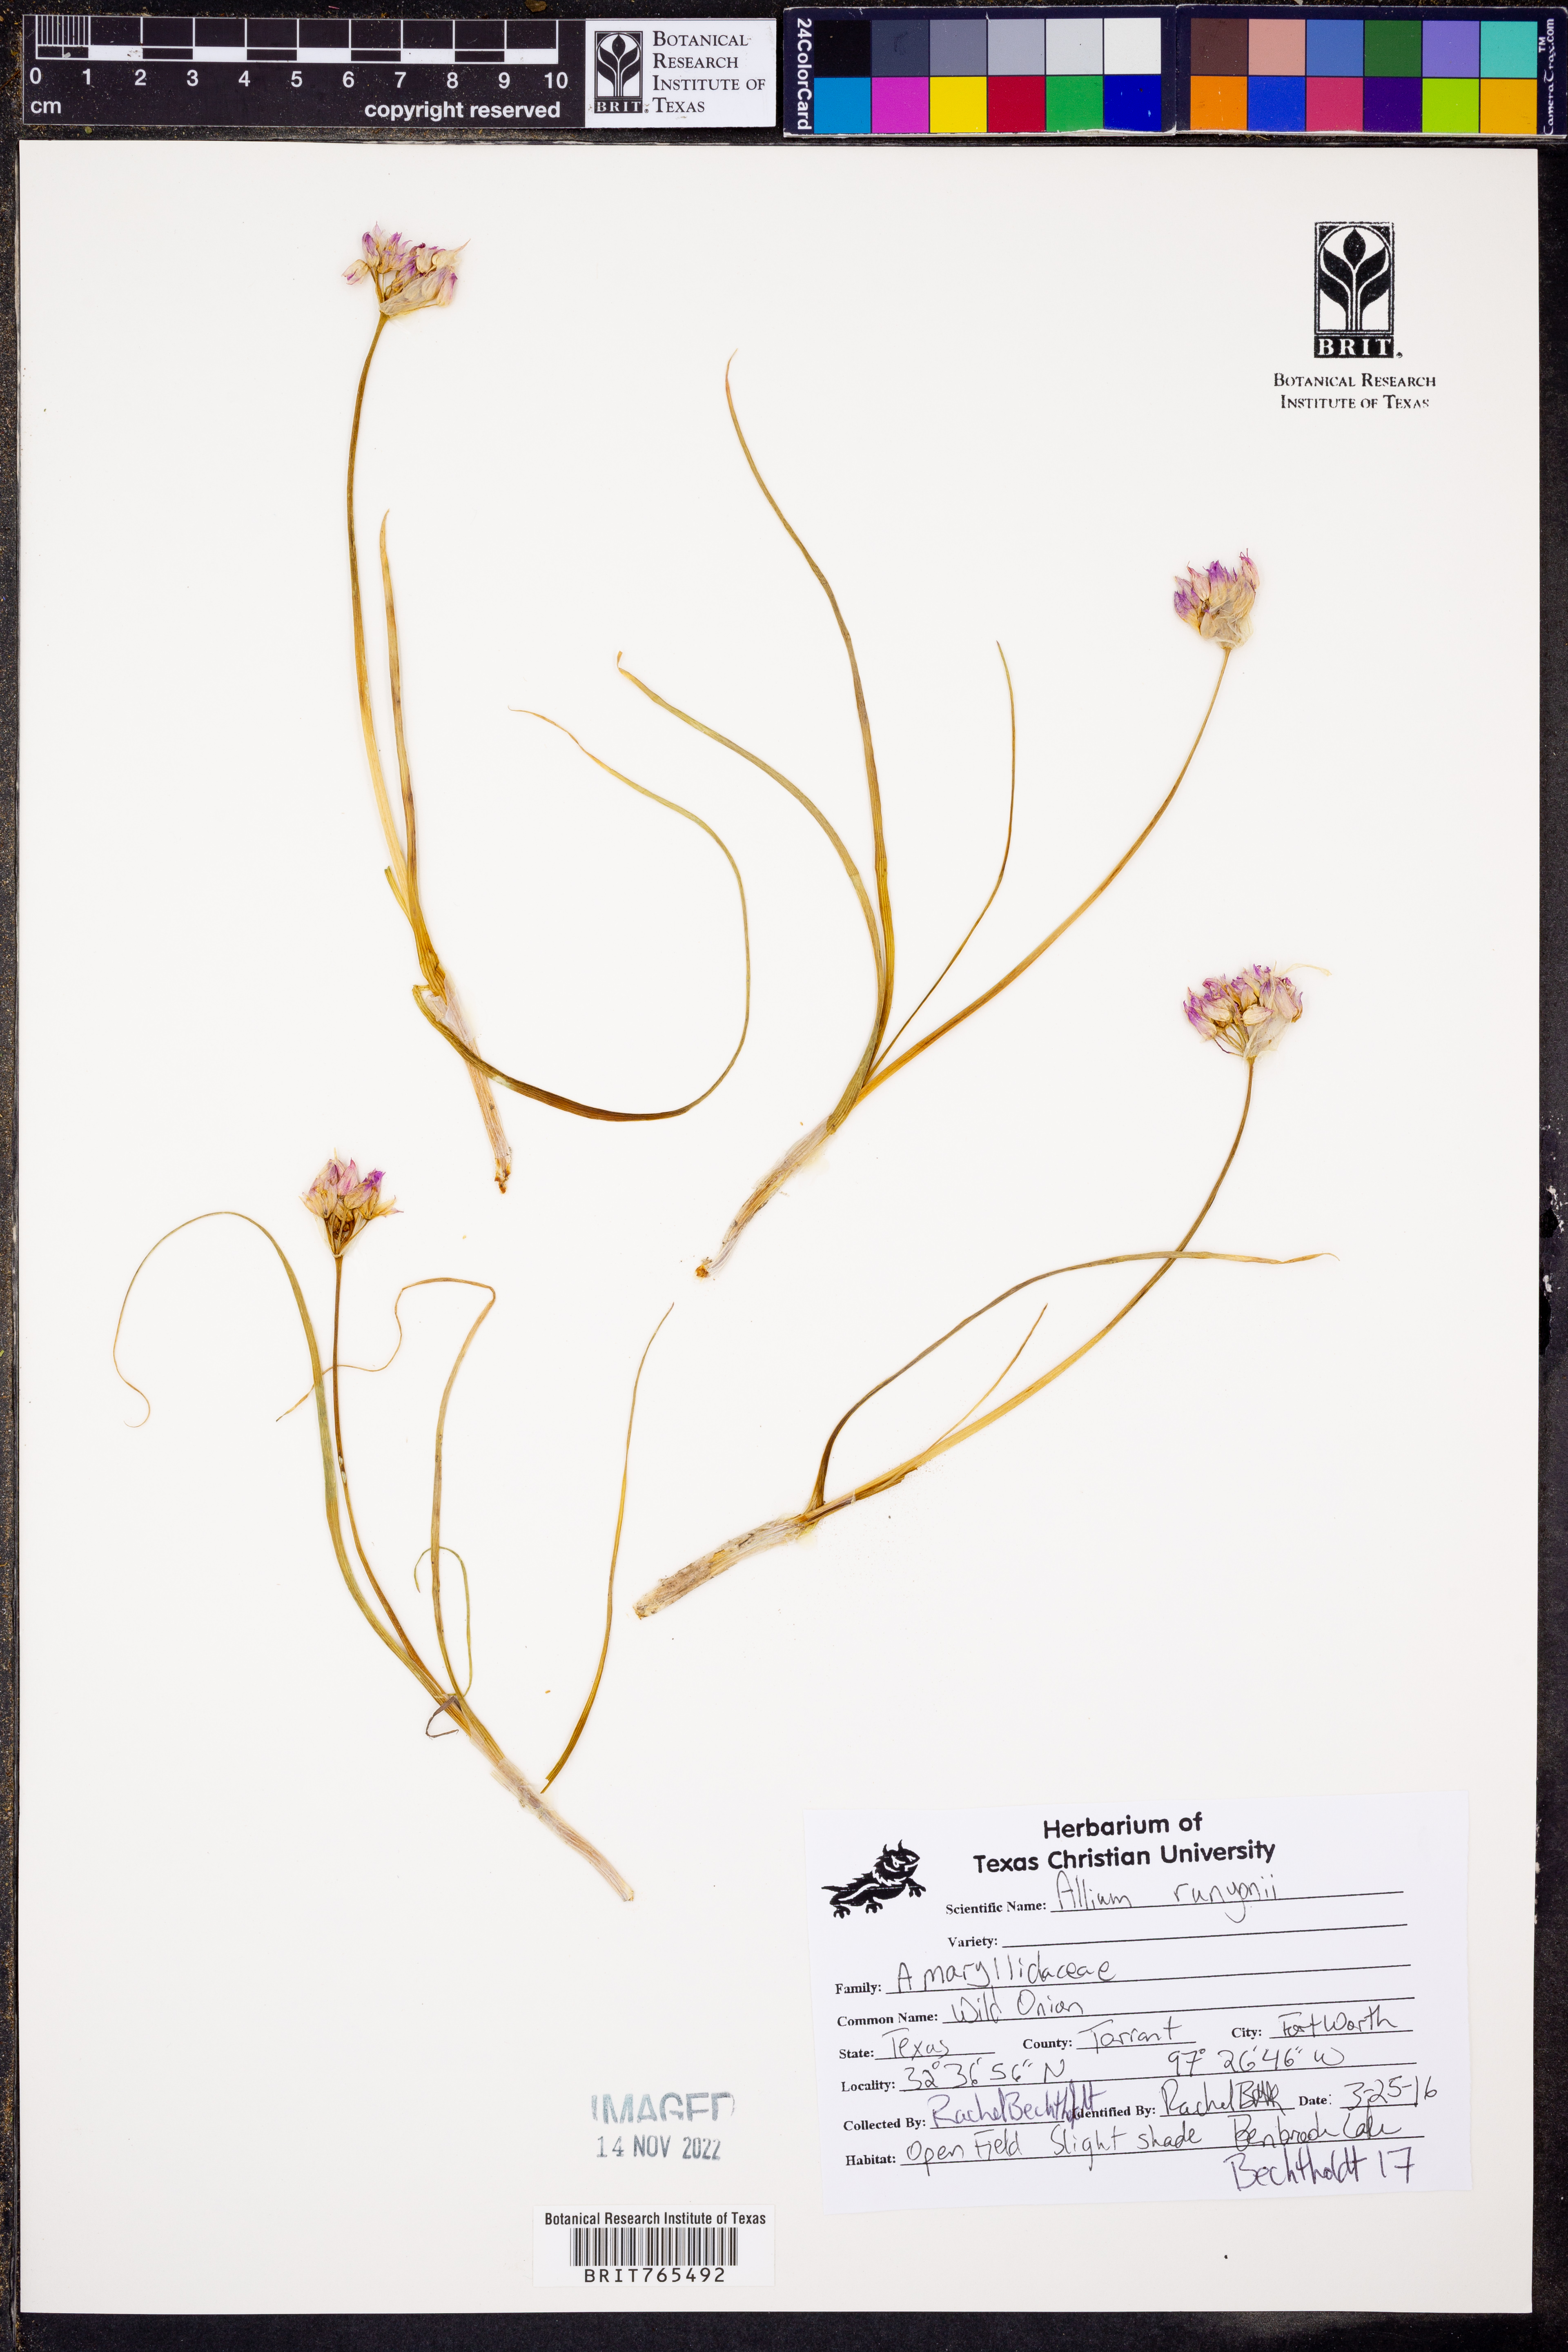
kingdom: Plantae
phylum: Tracheophyta
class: Liliopsida
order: Asparagales
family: Amaryllidaceae
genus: Allium
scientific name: Allium runyonii
